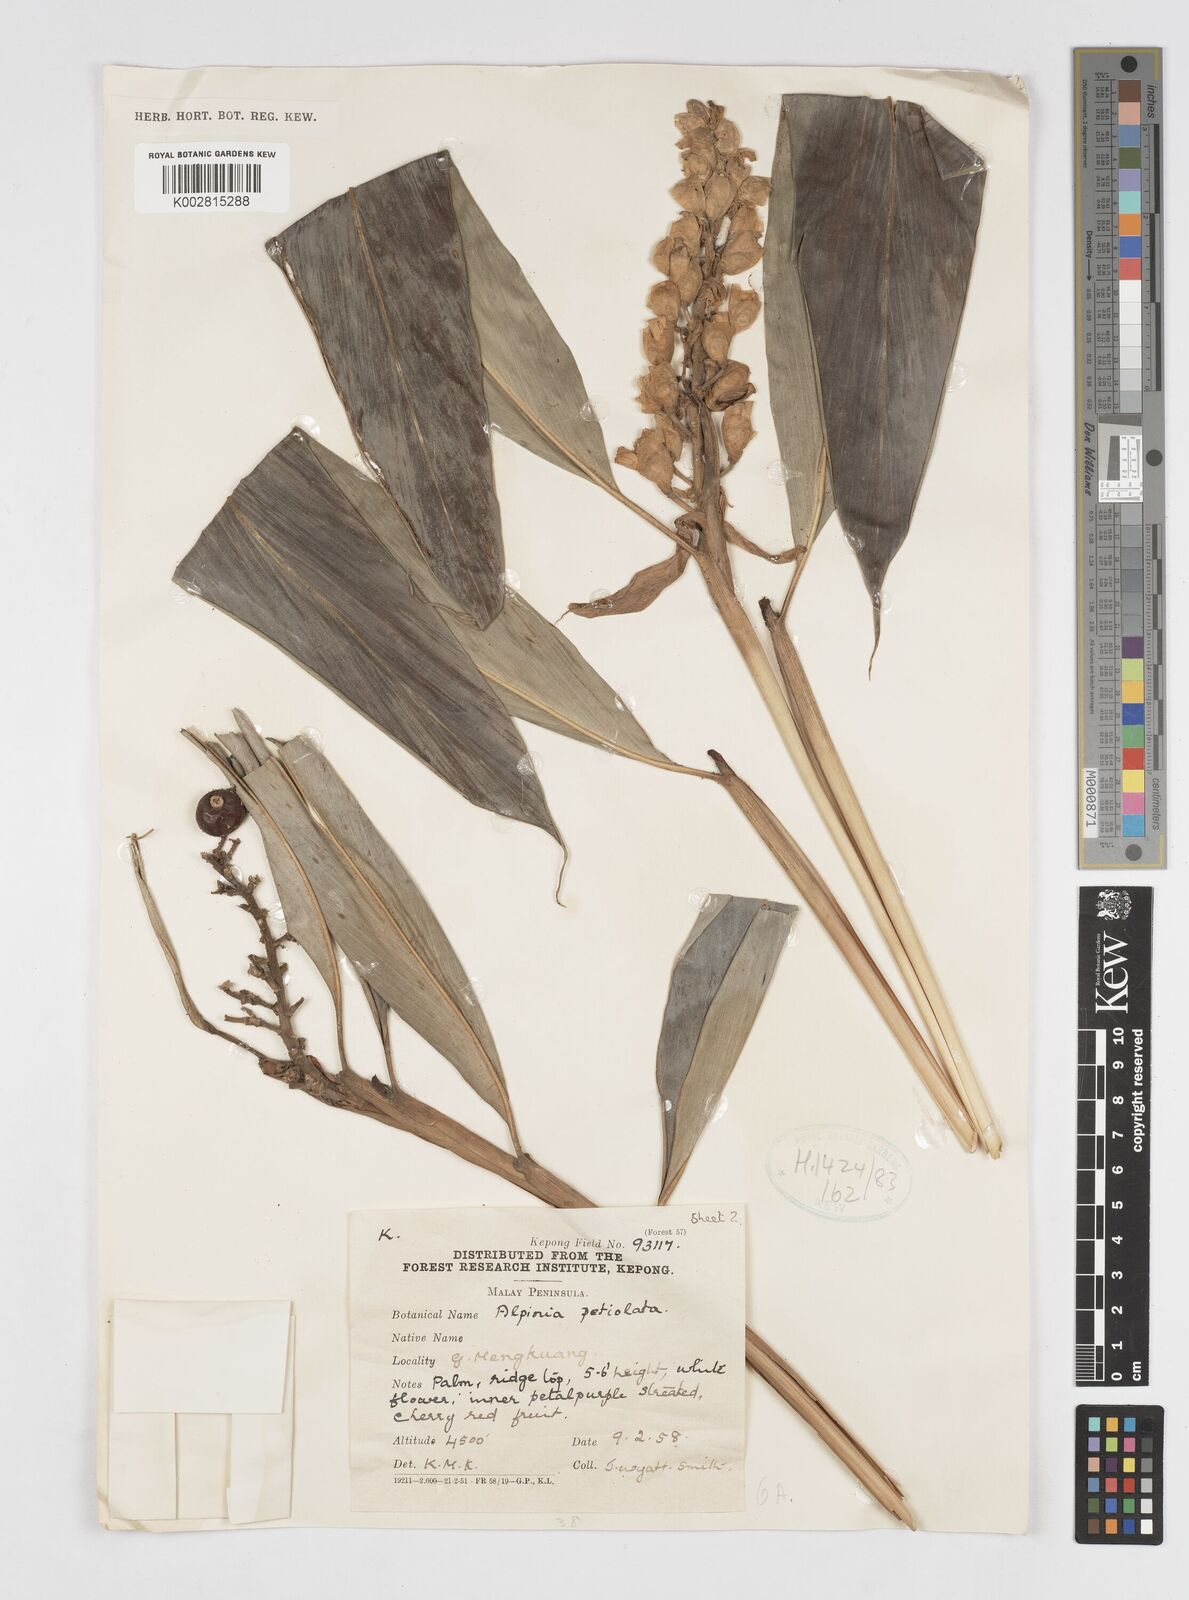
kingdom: Plantae
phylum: Tracheophyta
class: Liliopsida
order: Zingiberales
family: Zingiberaceae
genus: Alpinia
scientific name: Alpinia petiolata
